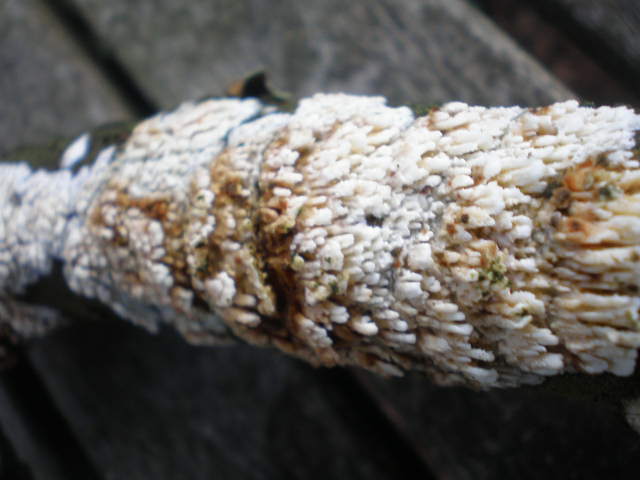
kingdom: Fungi
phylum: Basidiomycota
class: Agaricomycetes
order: Hymenochaetales
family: Schizoporaceae
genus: Xylodon
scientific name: Xylodon radula
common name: grovtandet kalkskind
